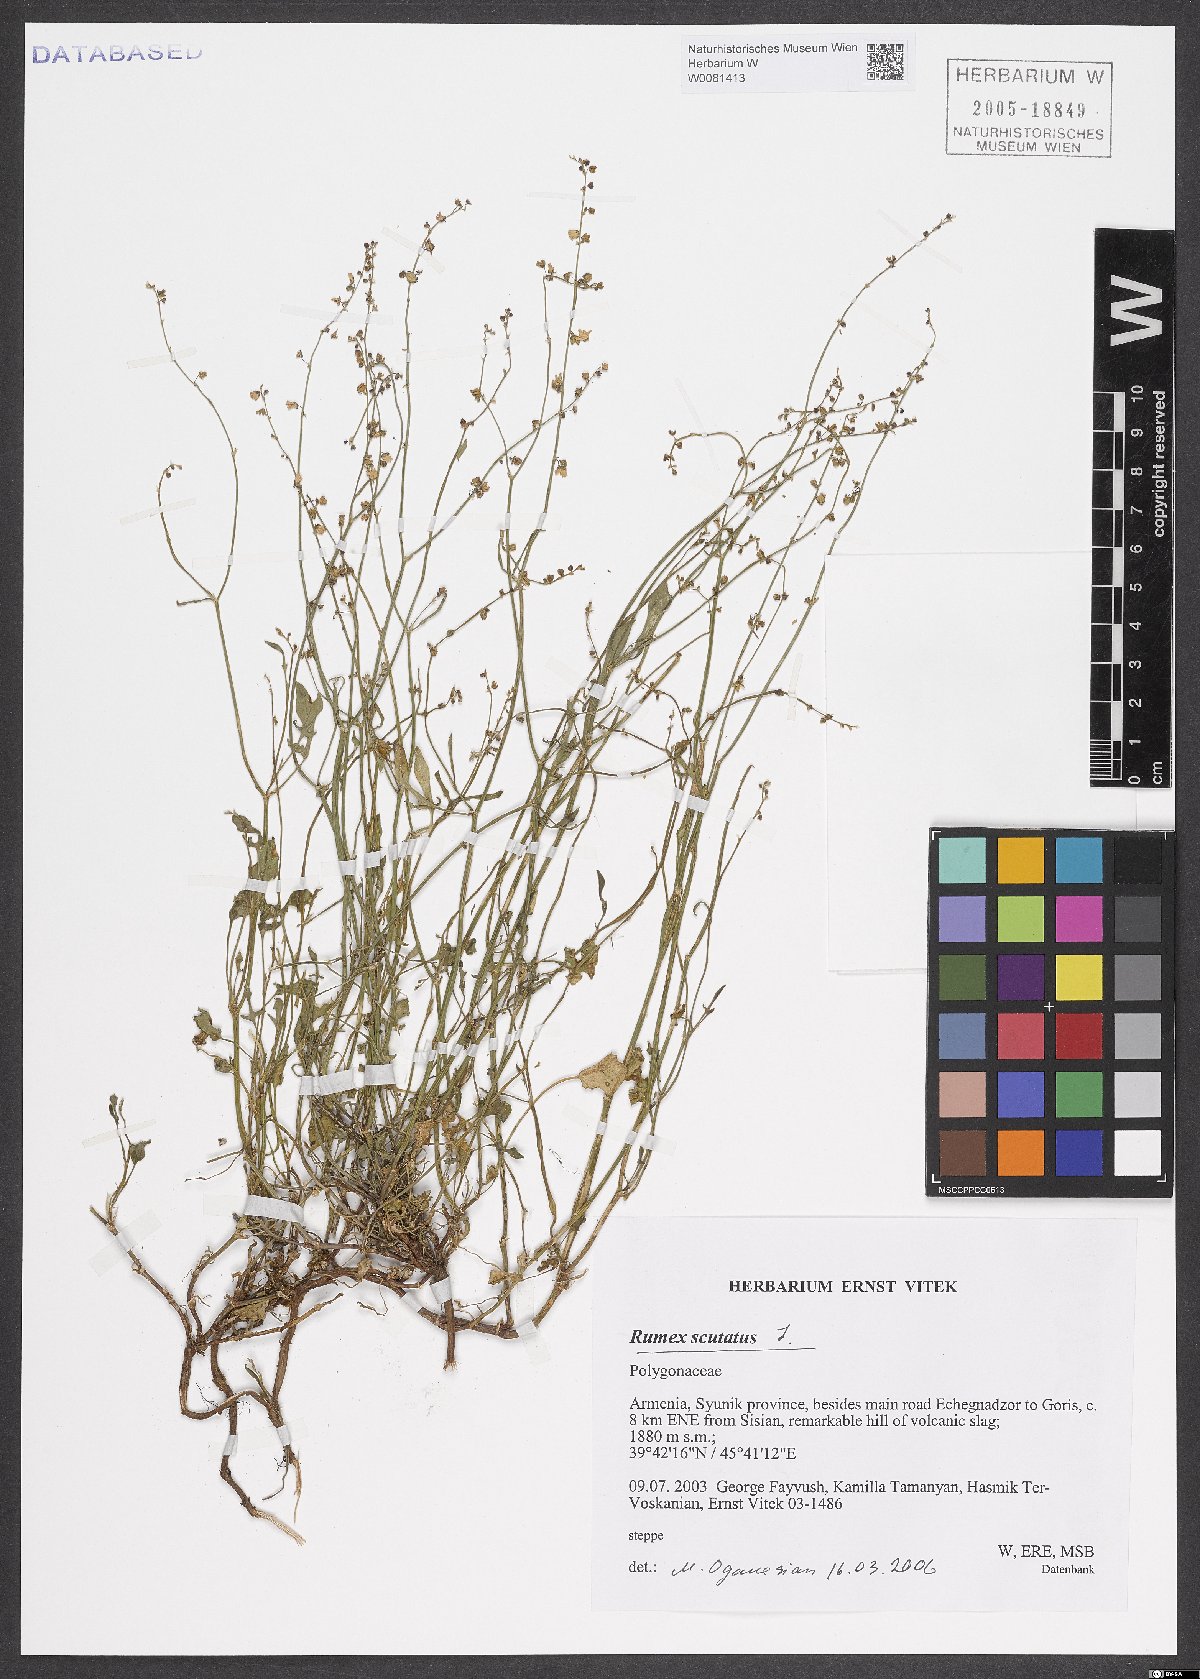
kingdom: Plantae
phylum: Tracheophyta
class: Magnoliopsida
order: Caryophyllales
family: Polygonaceae
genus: Rumex
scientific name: Rumex scutatus
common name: French sorrel
